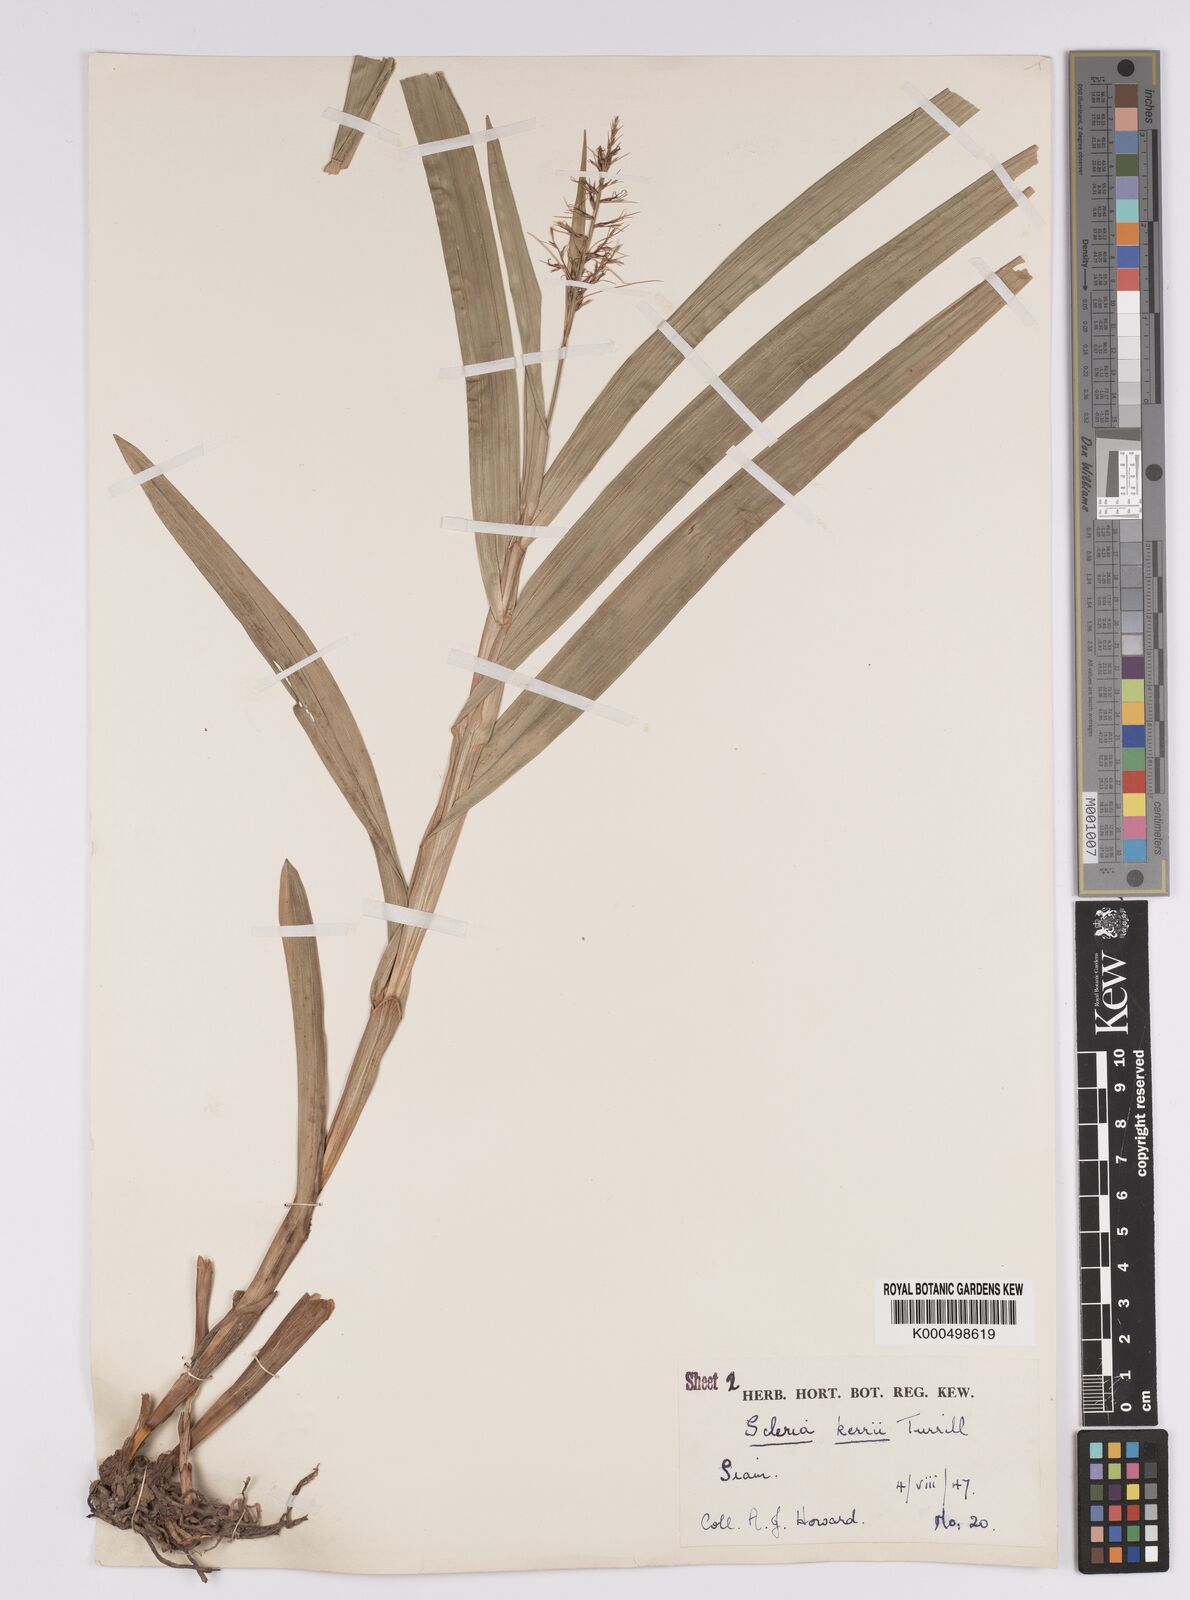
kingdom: Plantae
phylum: Tracheophyta
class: Liliopsida
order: Poales
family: Cyperaceae
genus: Scleria
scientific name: Scleria kerrii
